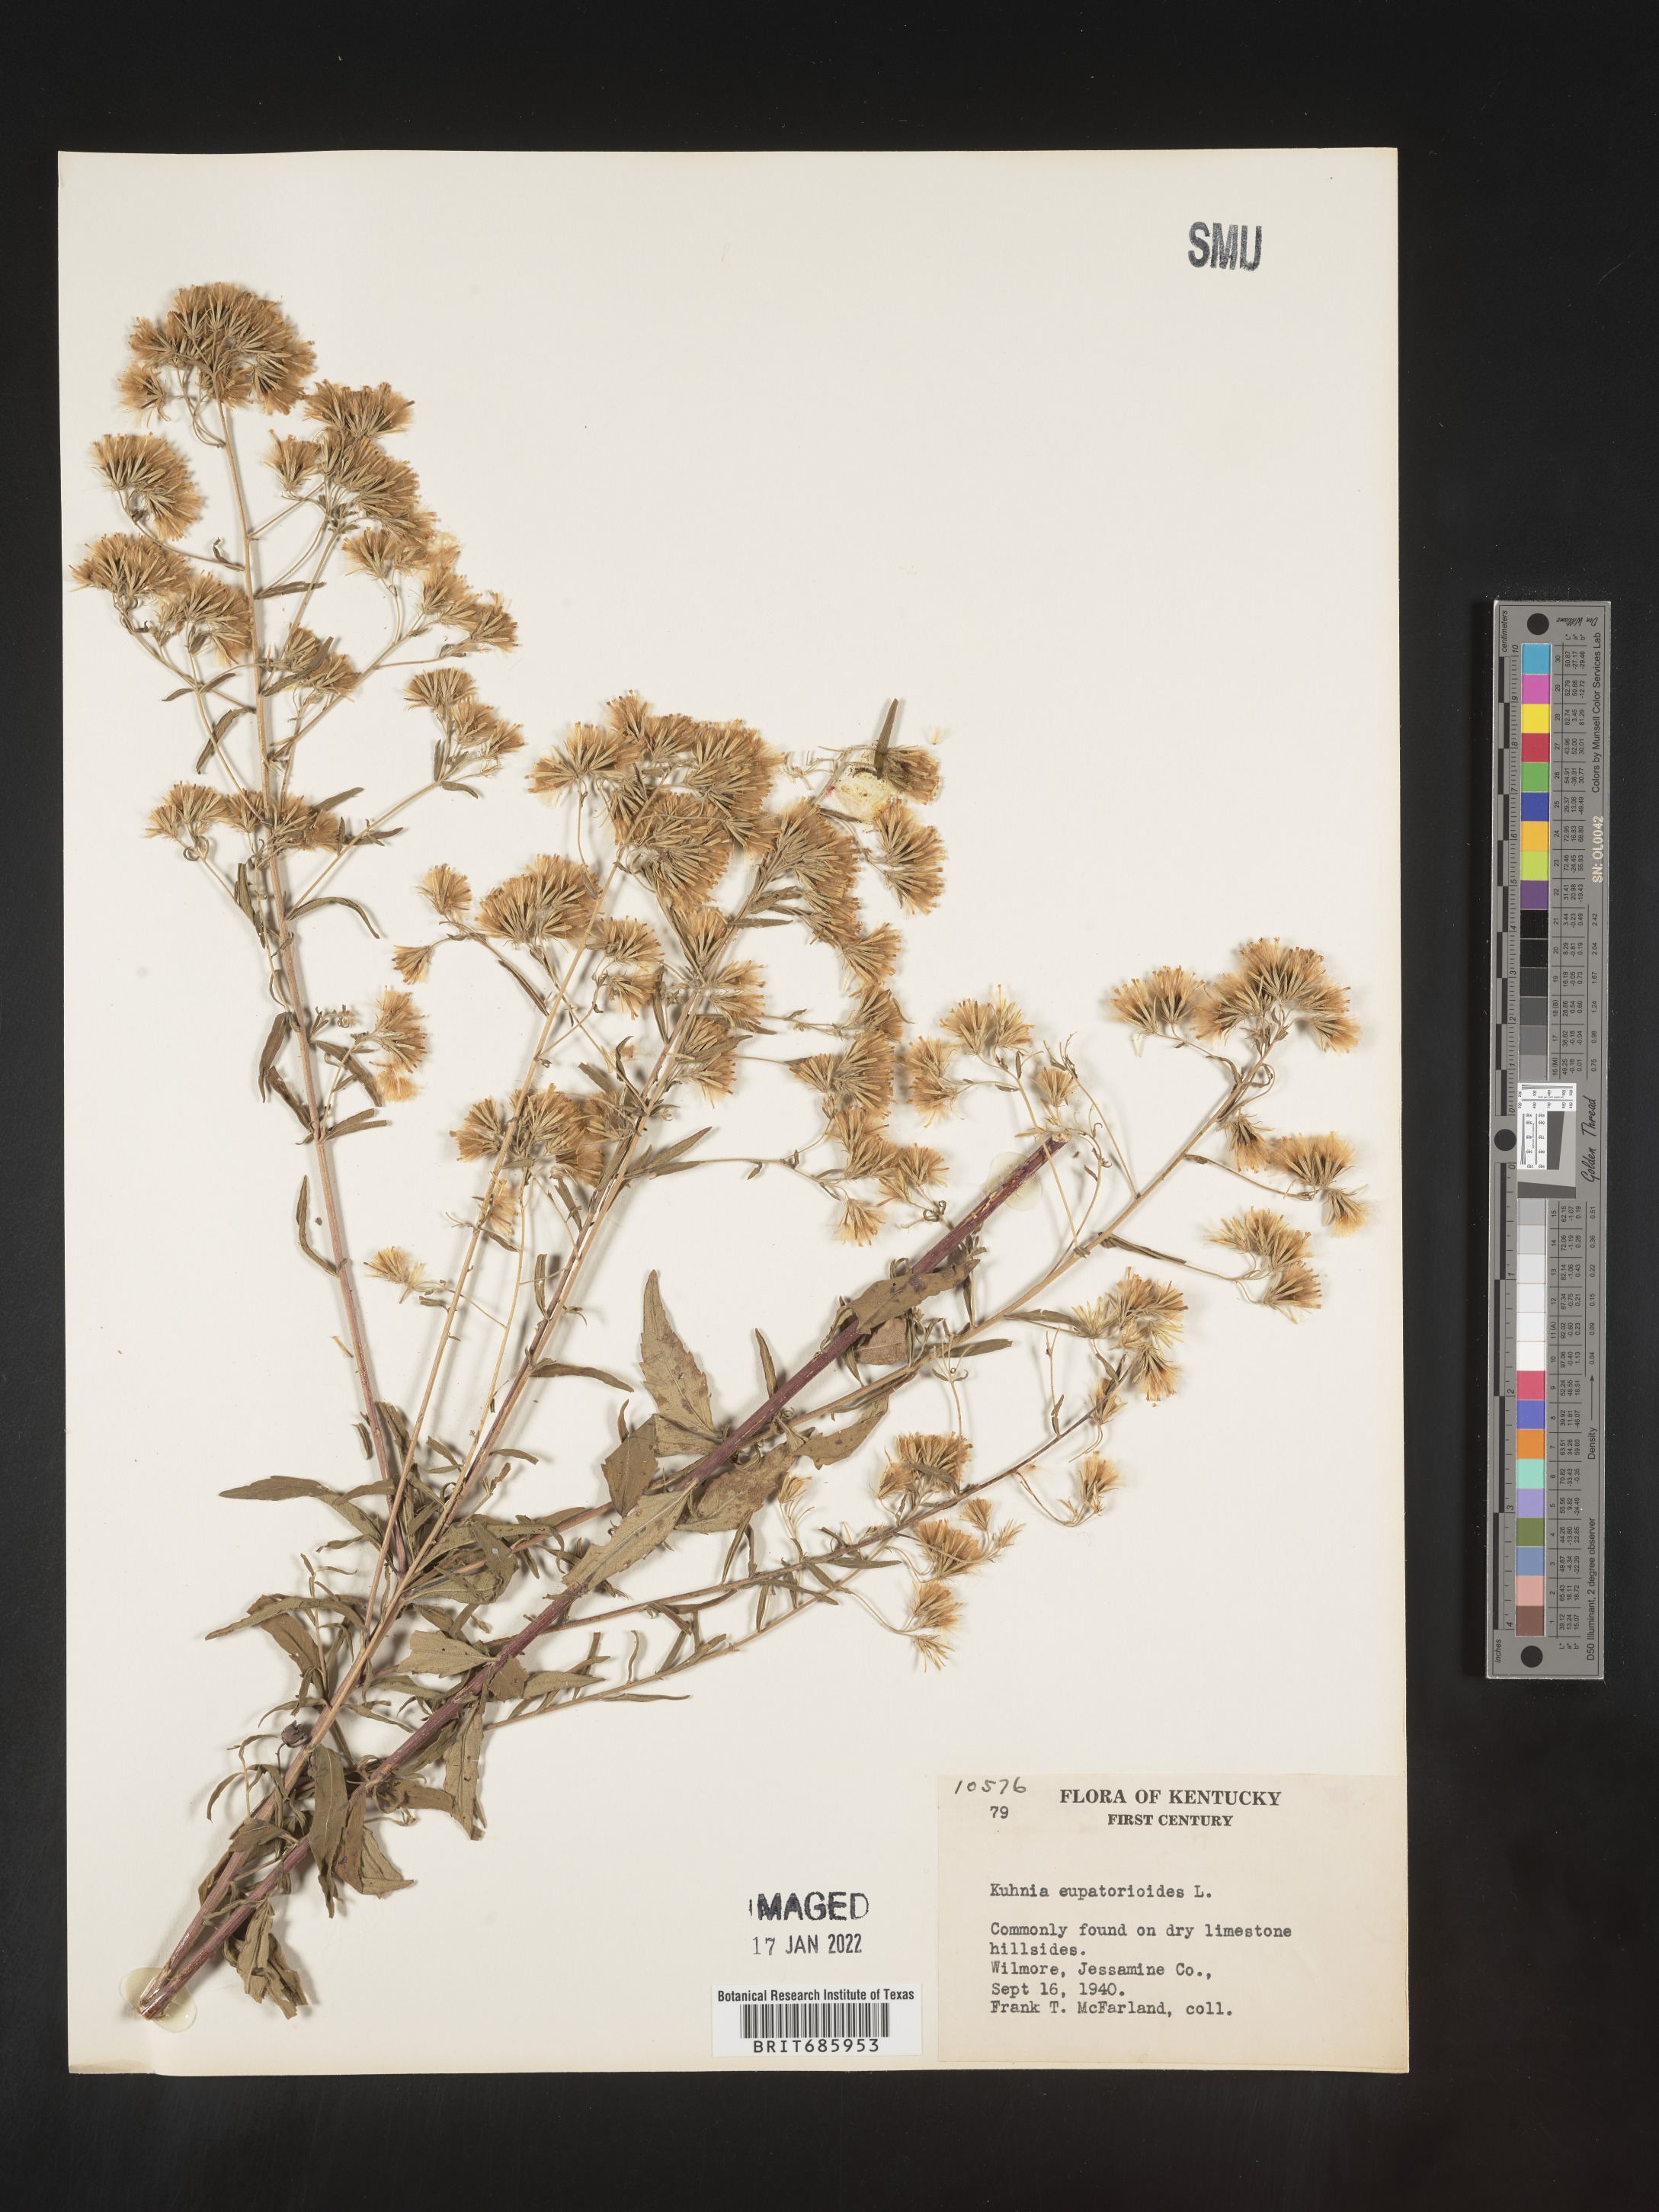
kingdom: Plantae
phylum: Tracheophyta
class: Magnoliopsida
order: Asterales
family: Asteraceae
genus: Brickellia
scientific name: Brickellia eupatorioides
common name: False boneset
